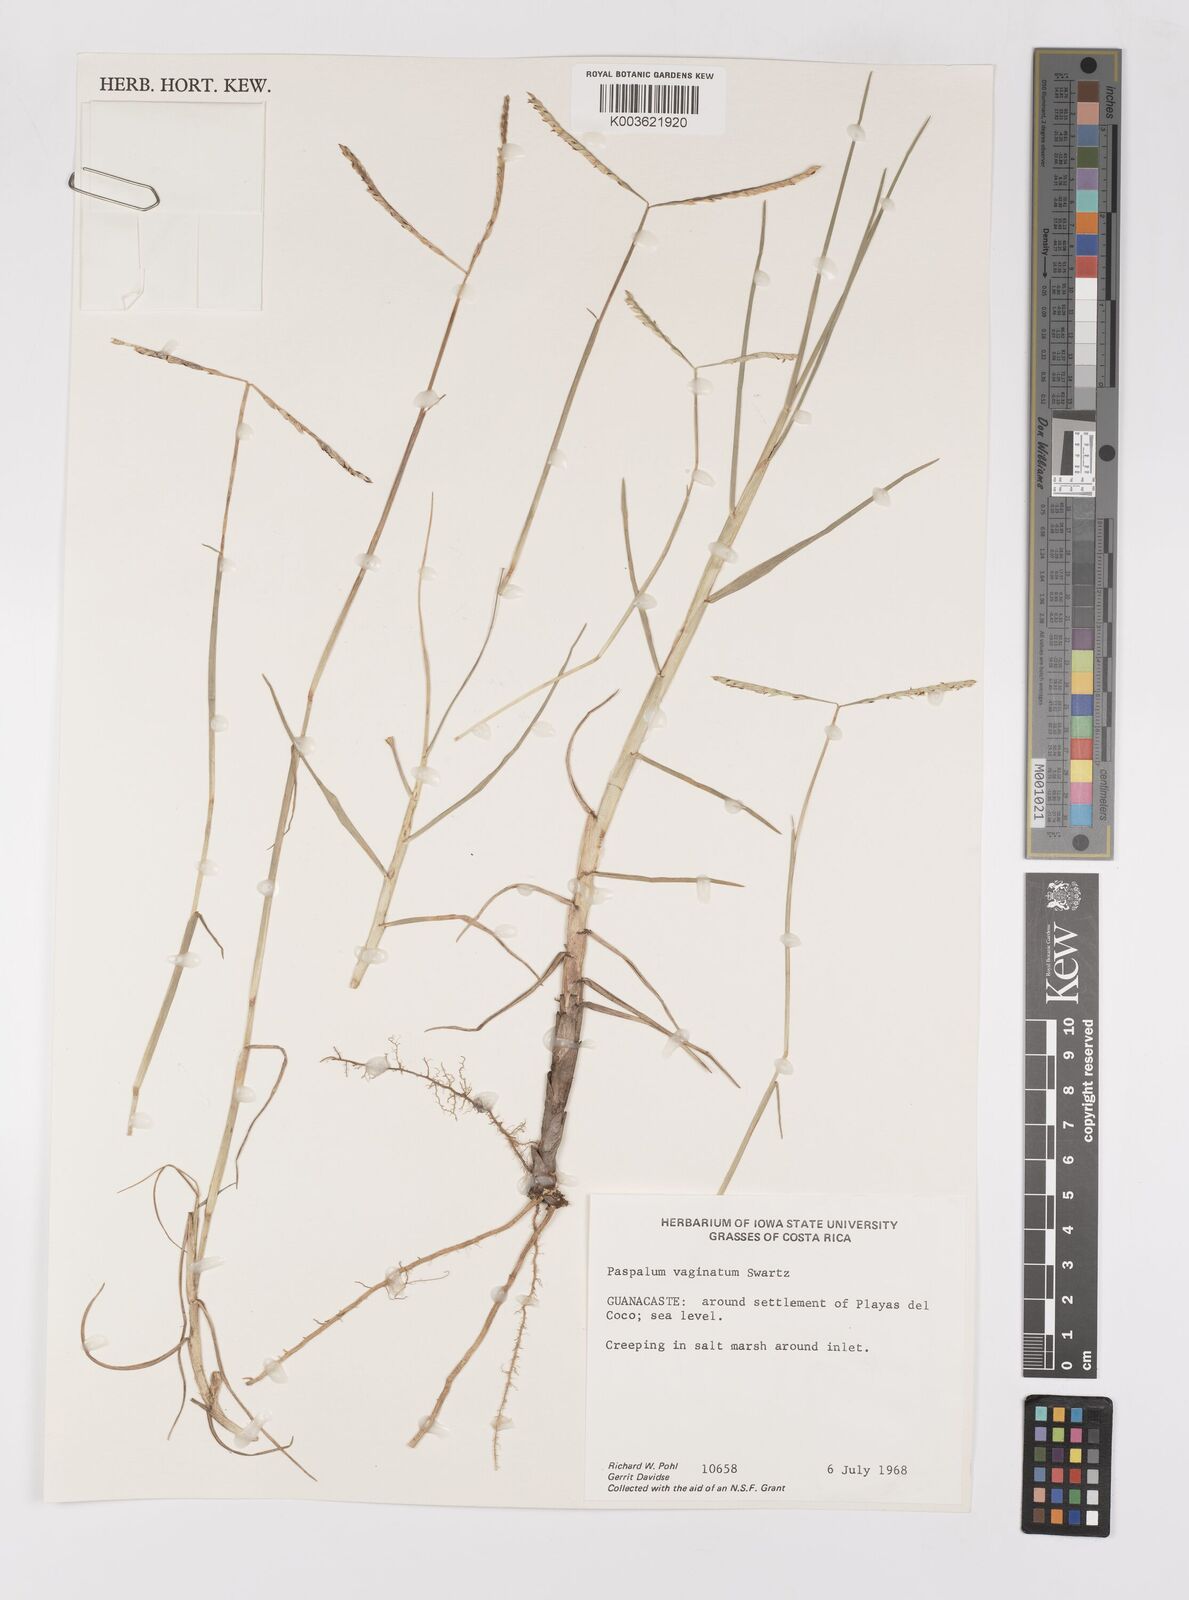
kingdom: Plantae
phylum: Tracheophyta
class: Liliopsida
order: Poales
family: Poaceae
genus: Paspalum
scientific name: Paspalum vaginatum
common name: Seashore paspalum
